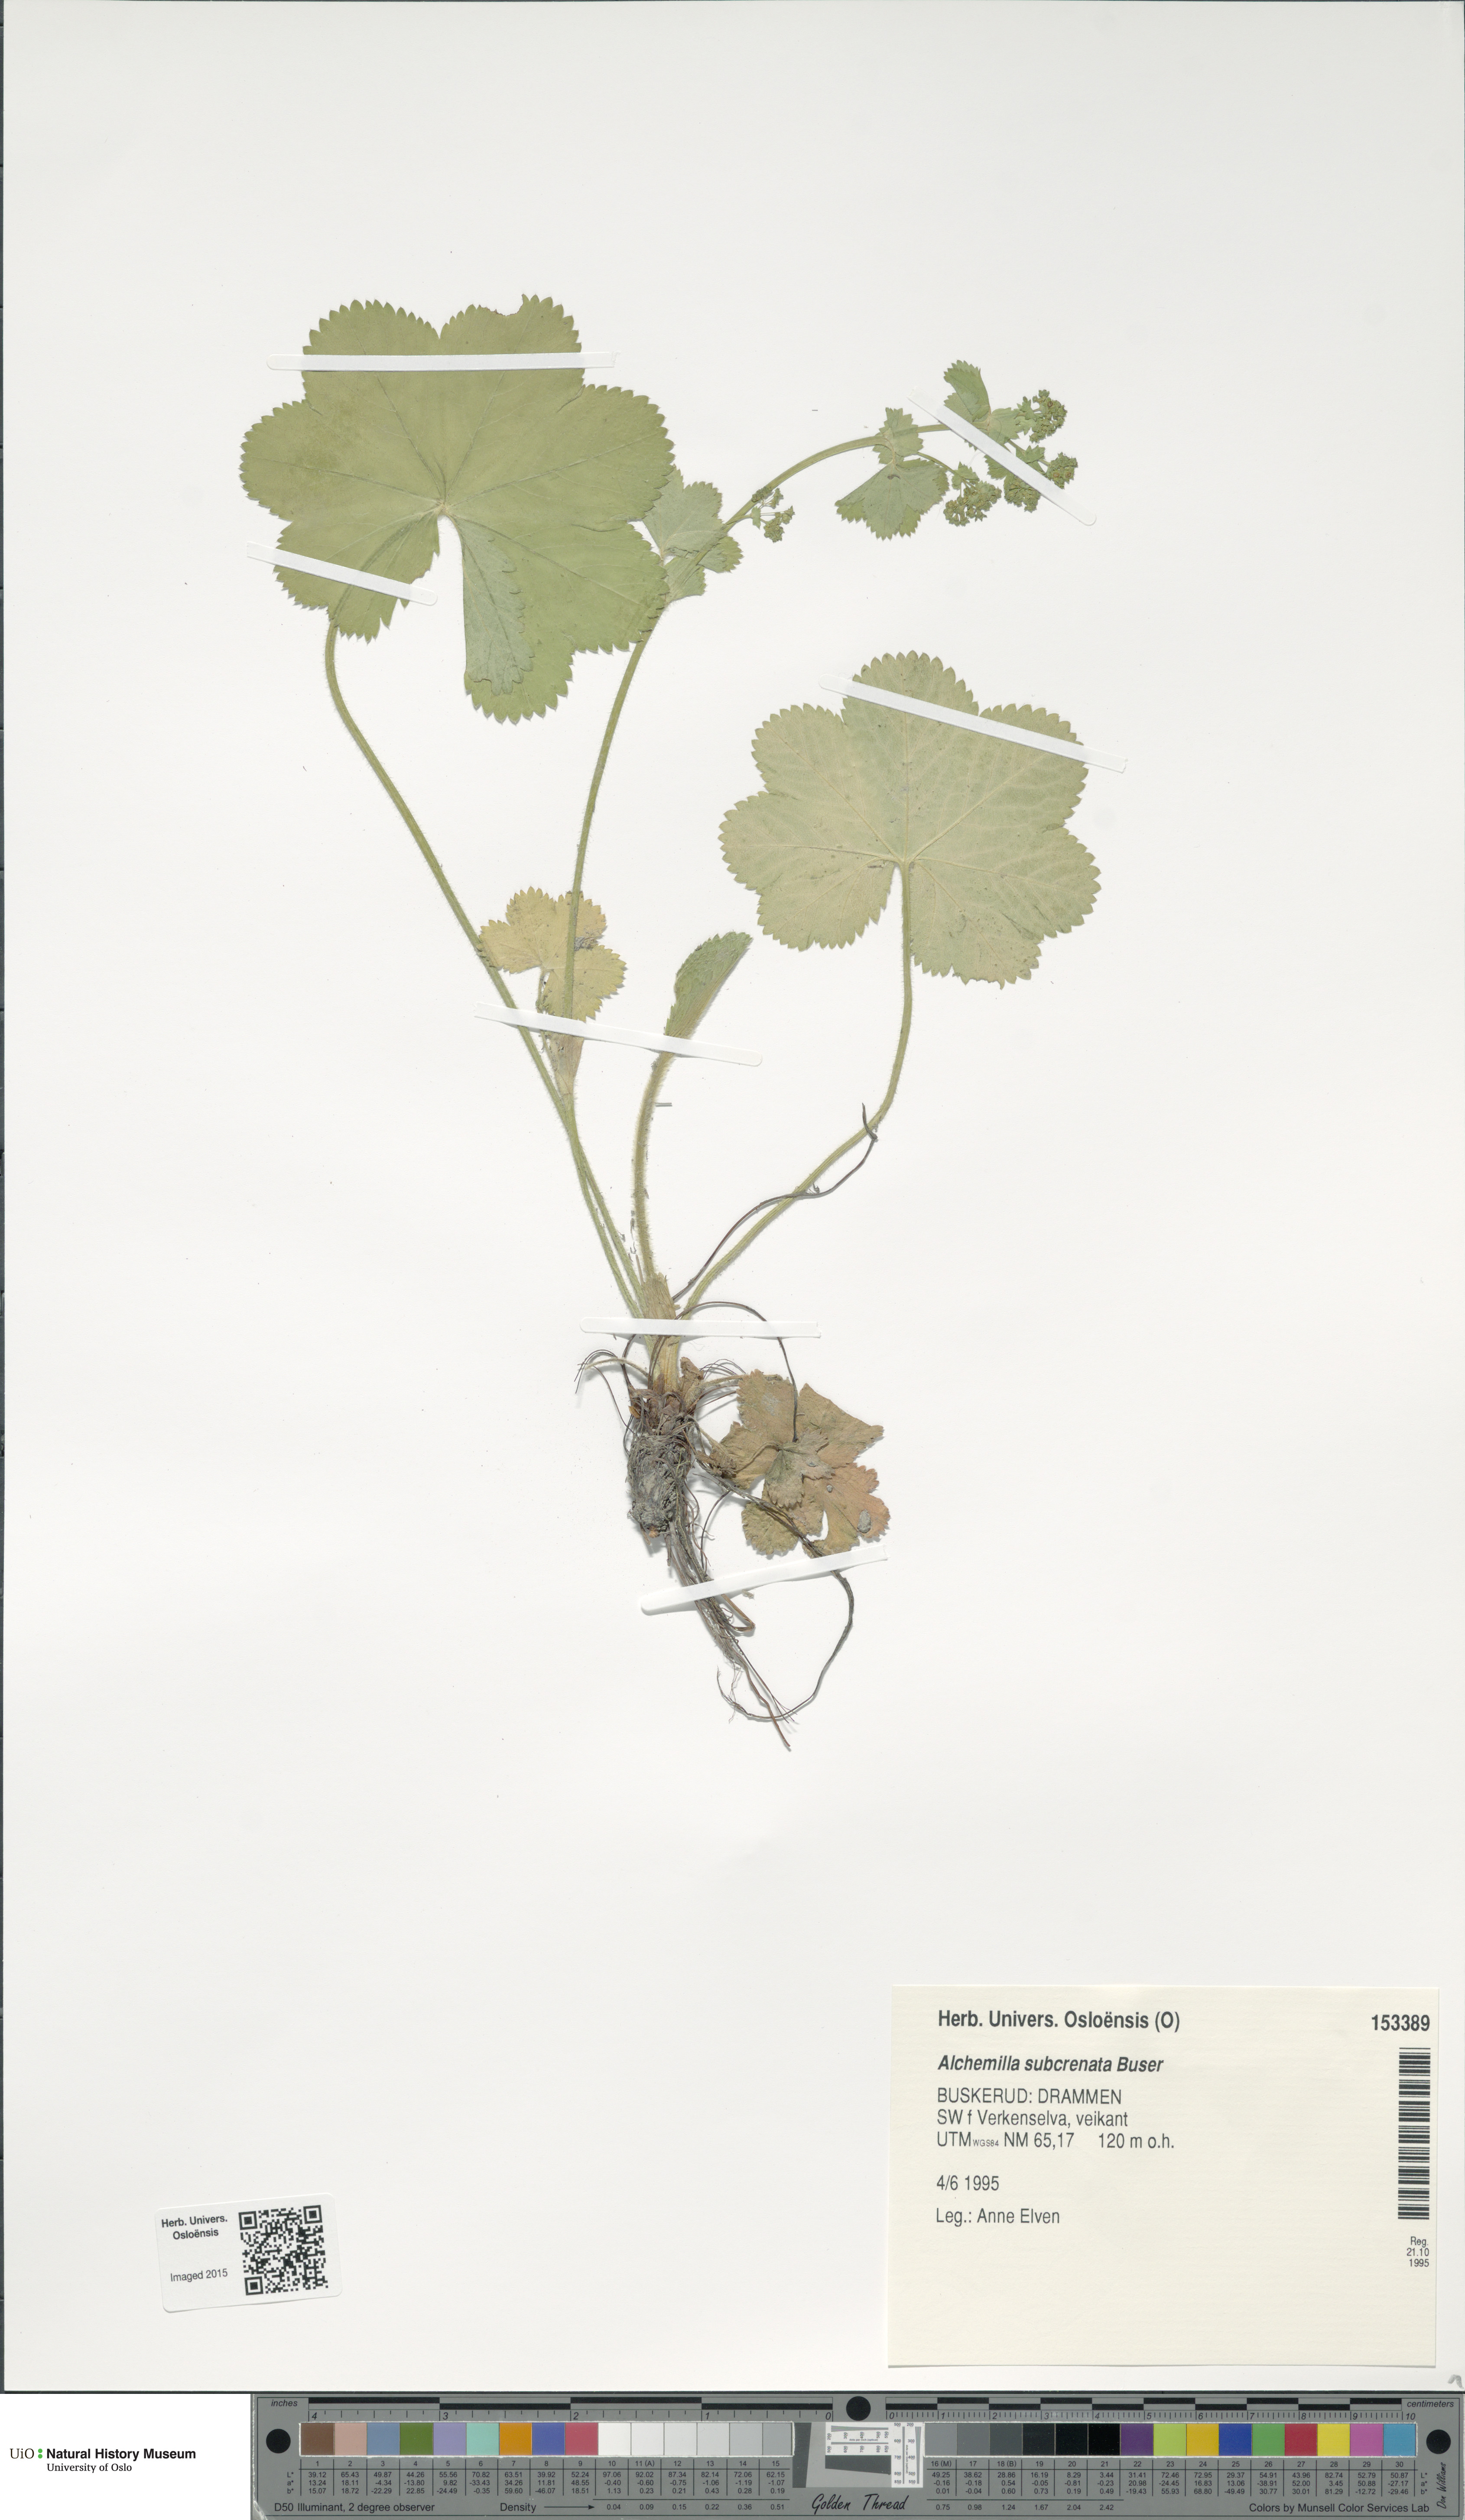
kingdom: Plantae
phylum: Tracheophyta
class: Magnoliopsida
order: Rosales
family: Rosaceae
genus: Alchemilla
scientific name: Alchemilla subcrenata
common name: Broadtooth lady's mantle
